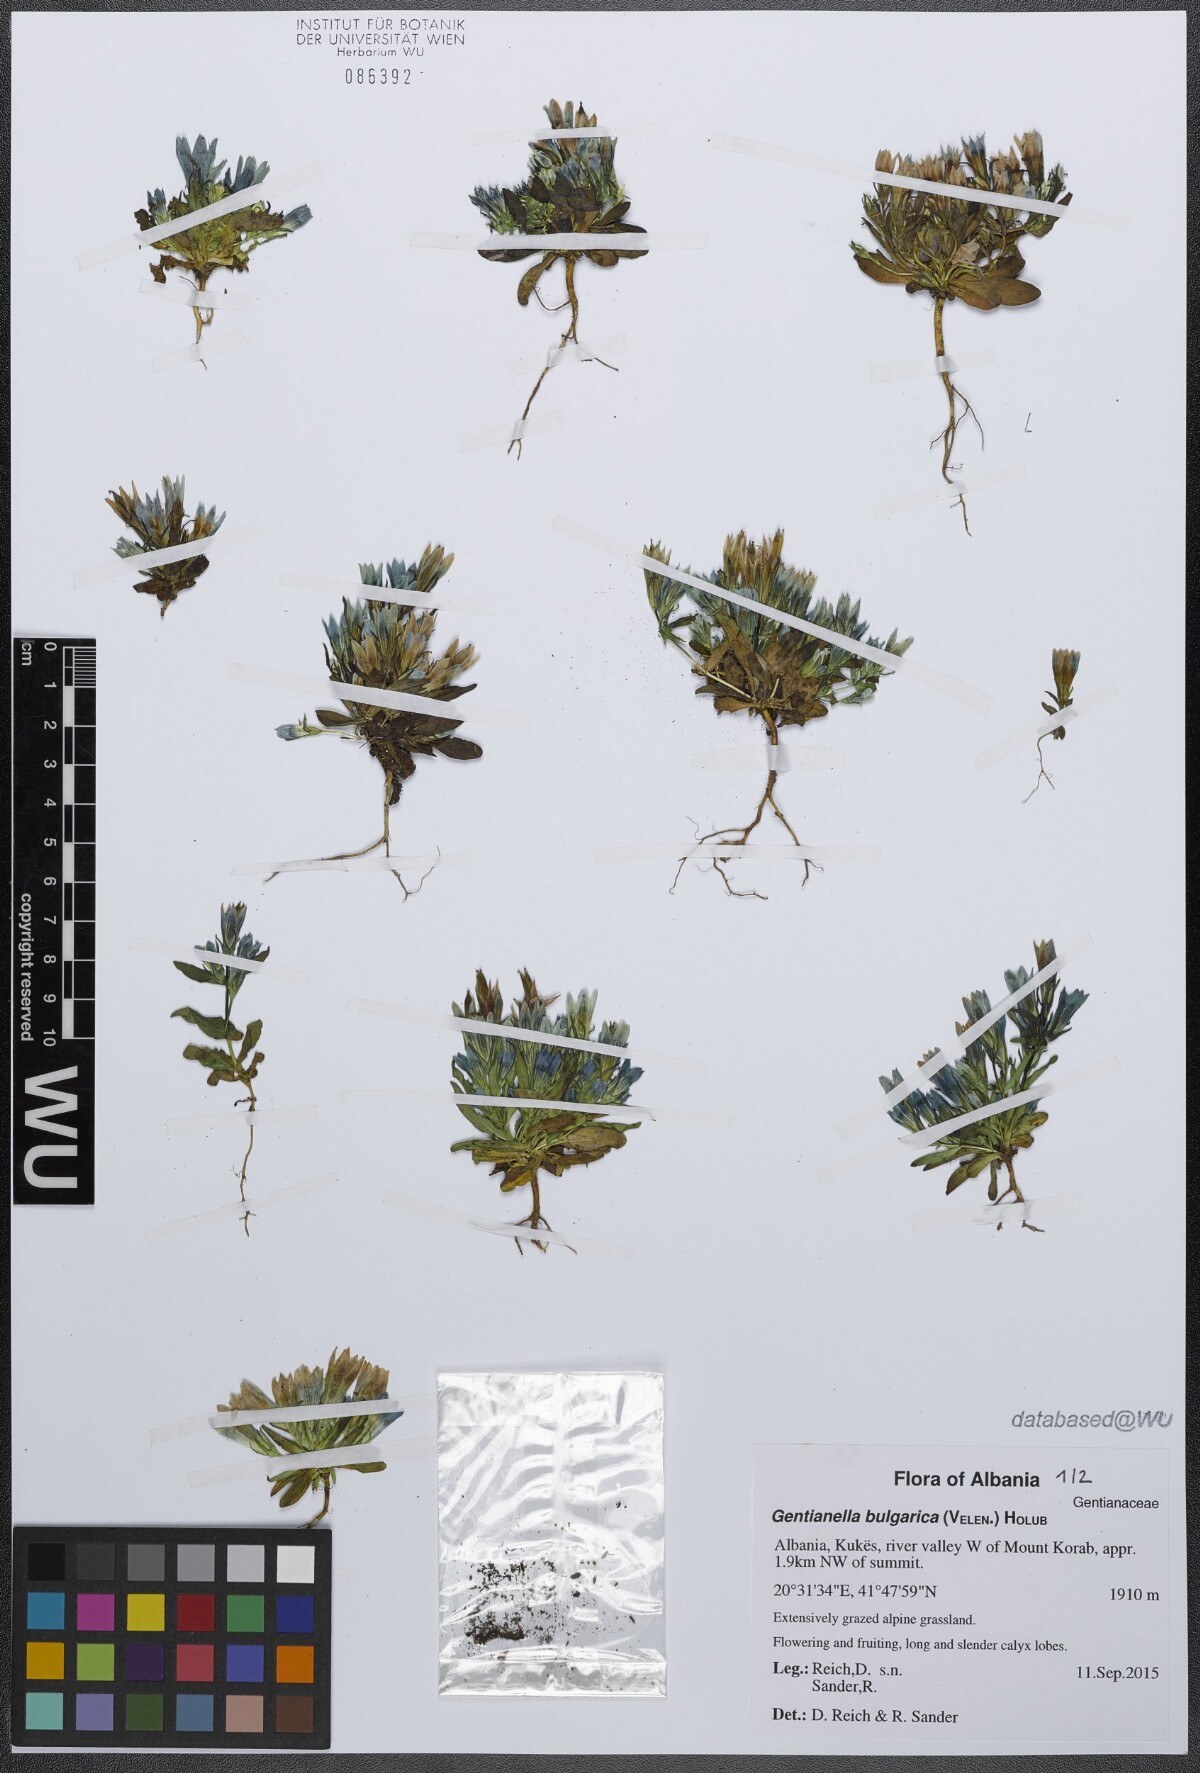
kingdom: Plantae
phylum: Tracheophyta
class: Magnoliopsida
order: Gentianales
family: Gentianaceae
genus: Gentianella
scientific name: Gentianella bulgarica
